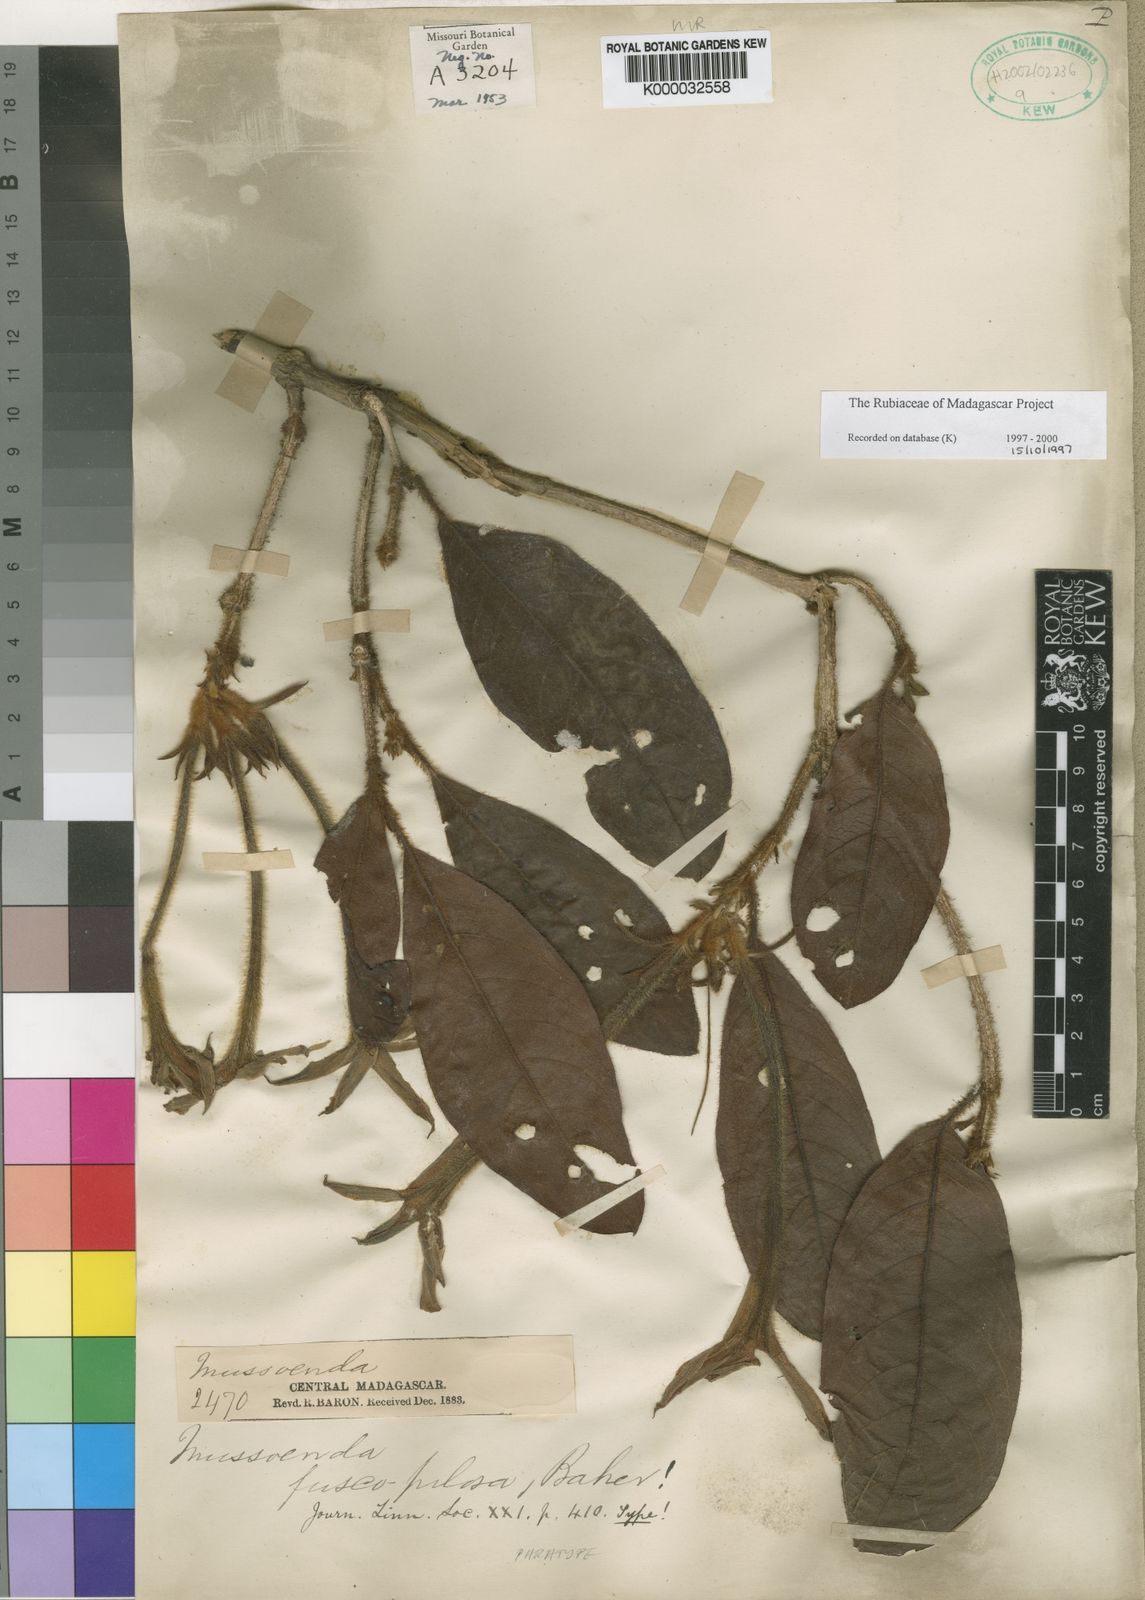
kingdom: Plantae
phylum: Tracheophyta
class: Magnoliopsida
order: Gentianales
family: Rubiaceae
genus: Bremeria
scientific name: Bremeria fuscopilosa
